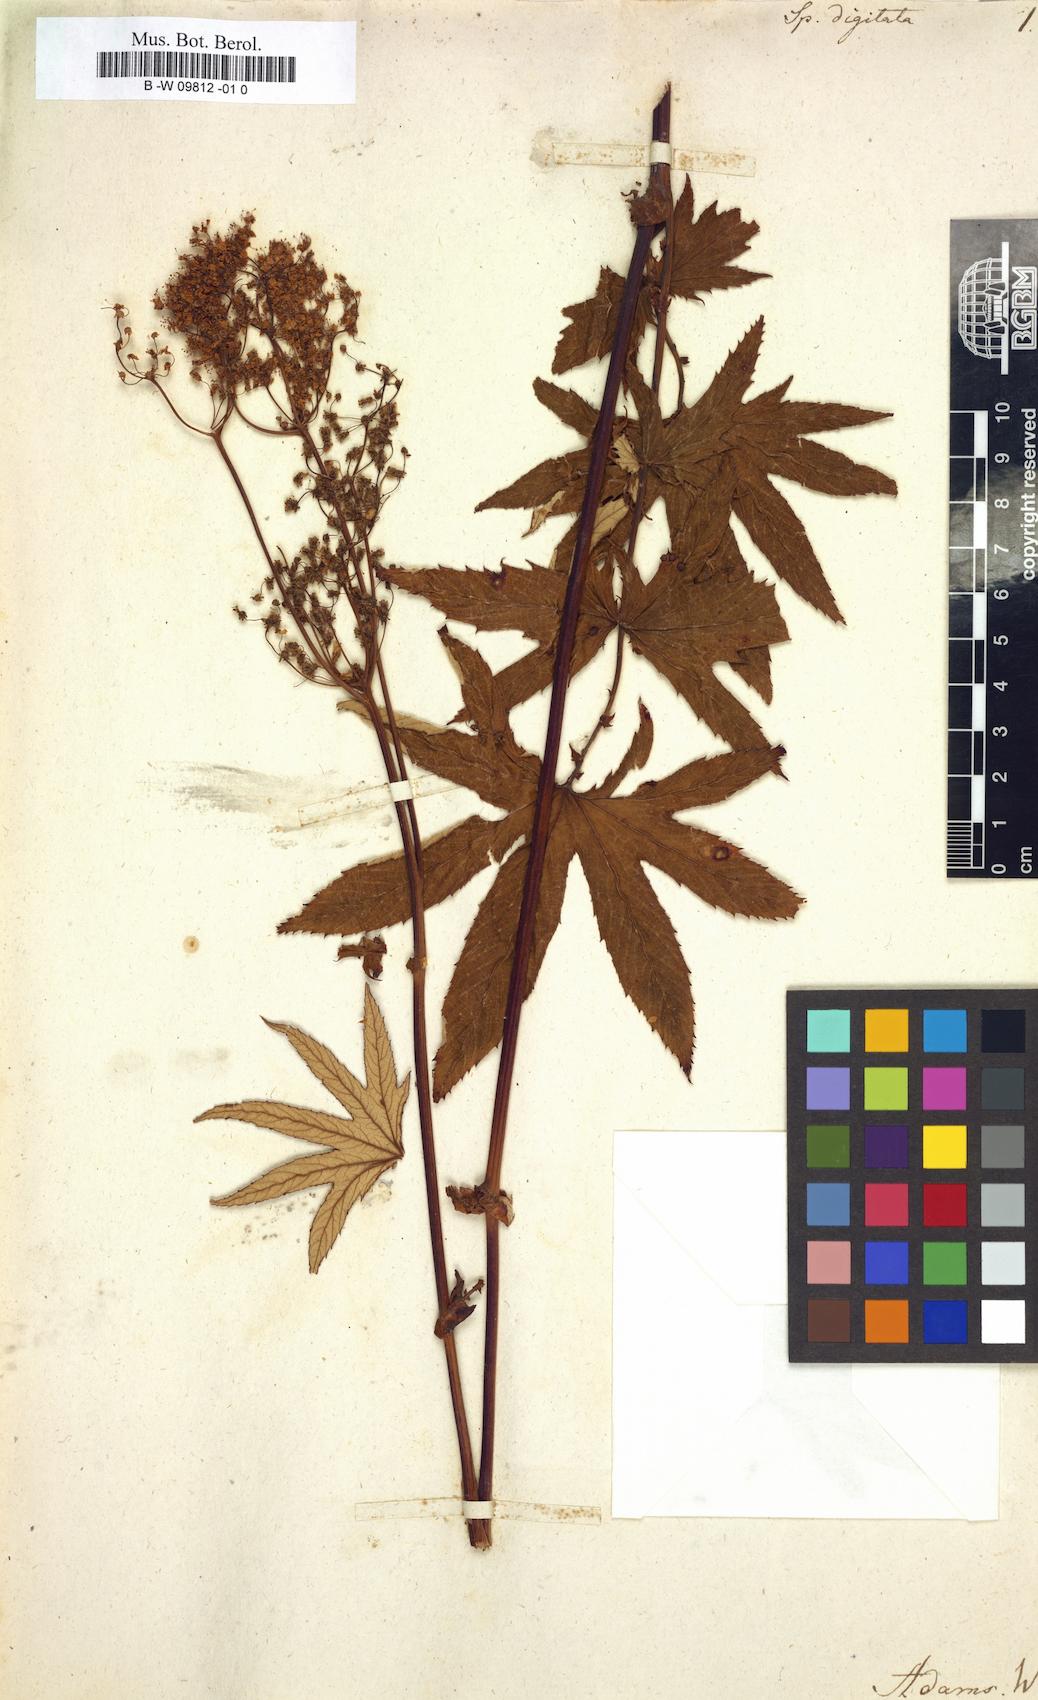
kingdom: Plantae
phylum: Tracheophyta
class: Magnoliopsida
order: Rosales
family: Rosaceae
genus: Filipendula
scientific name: Filipendula digitata
